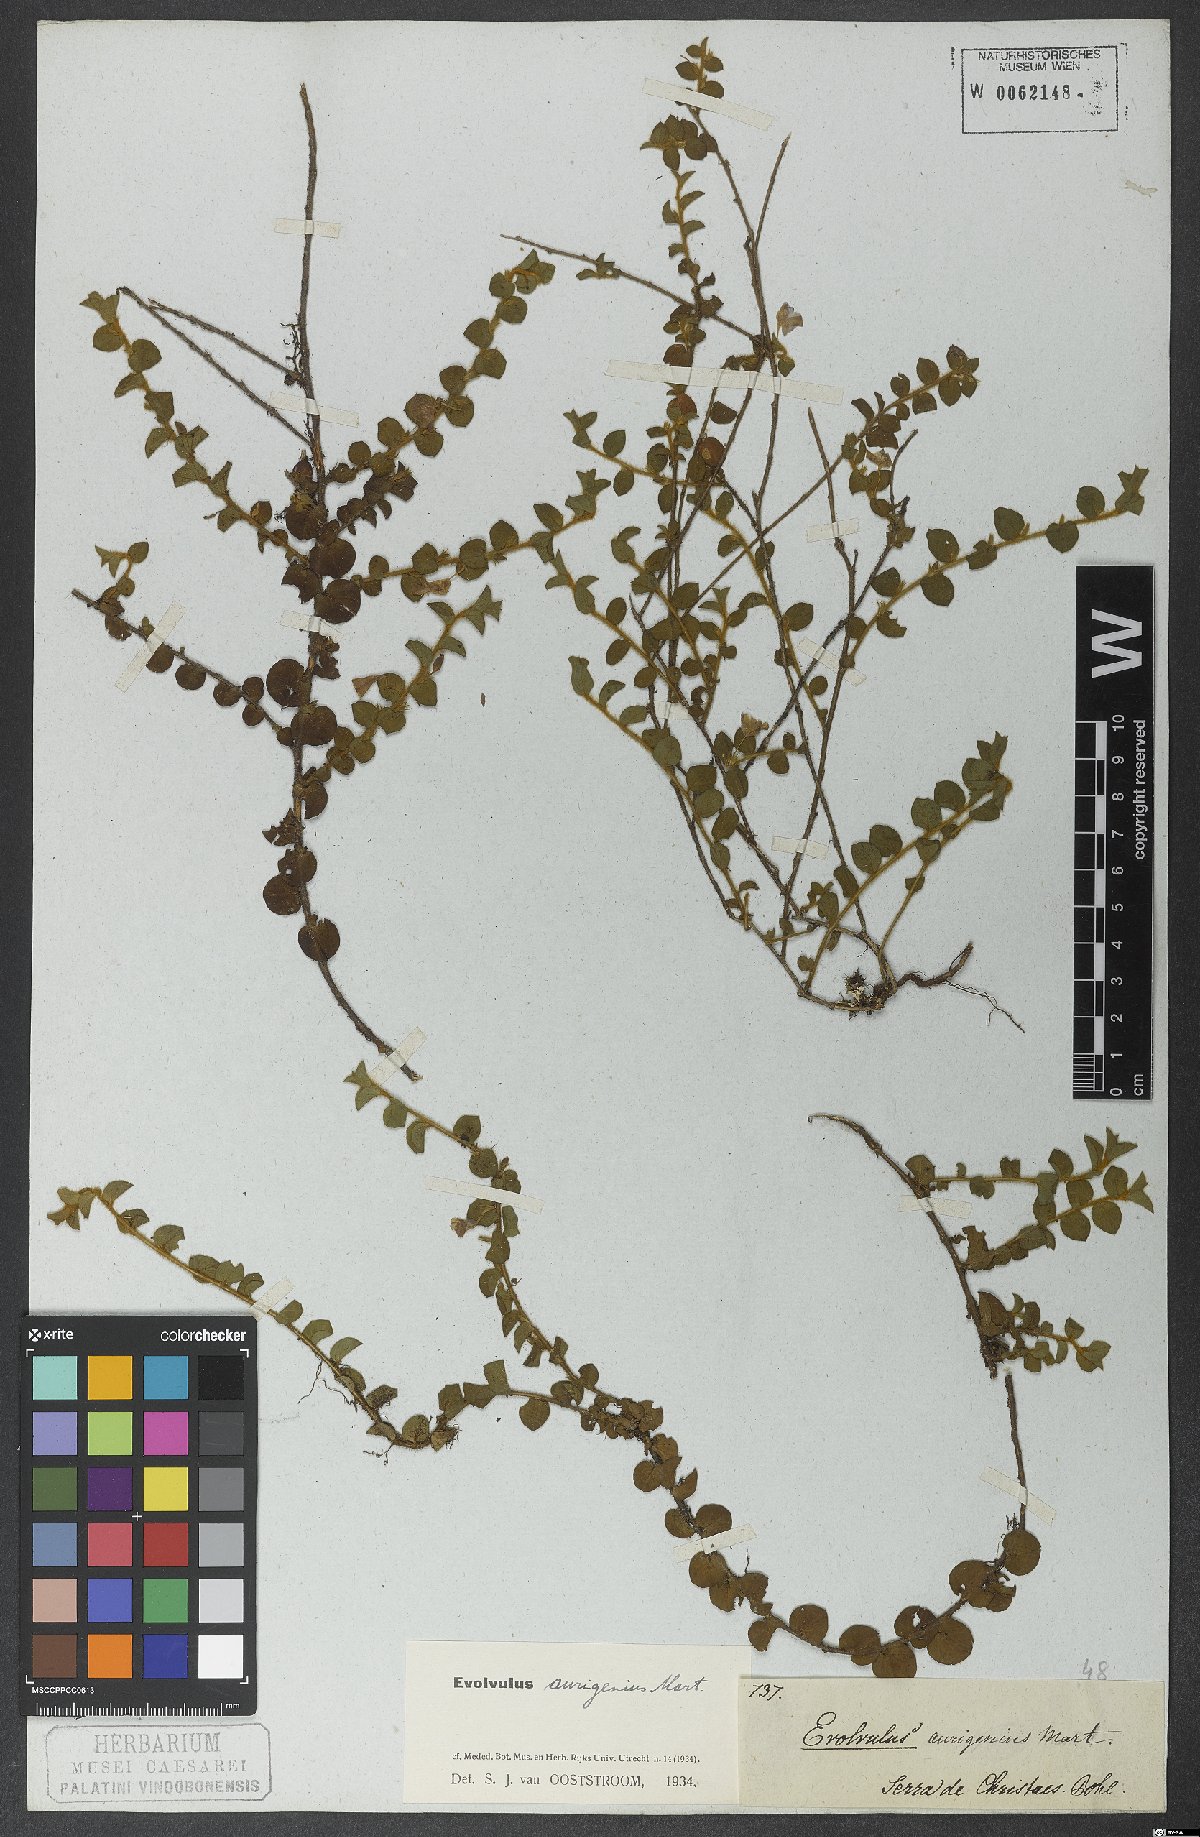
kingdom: Plantae
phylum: Tracheophyta
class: Magnoliopsida
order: Solanales
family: Convolvulaceae
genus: Evolvulus
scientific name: Evolvulus aurigenius
